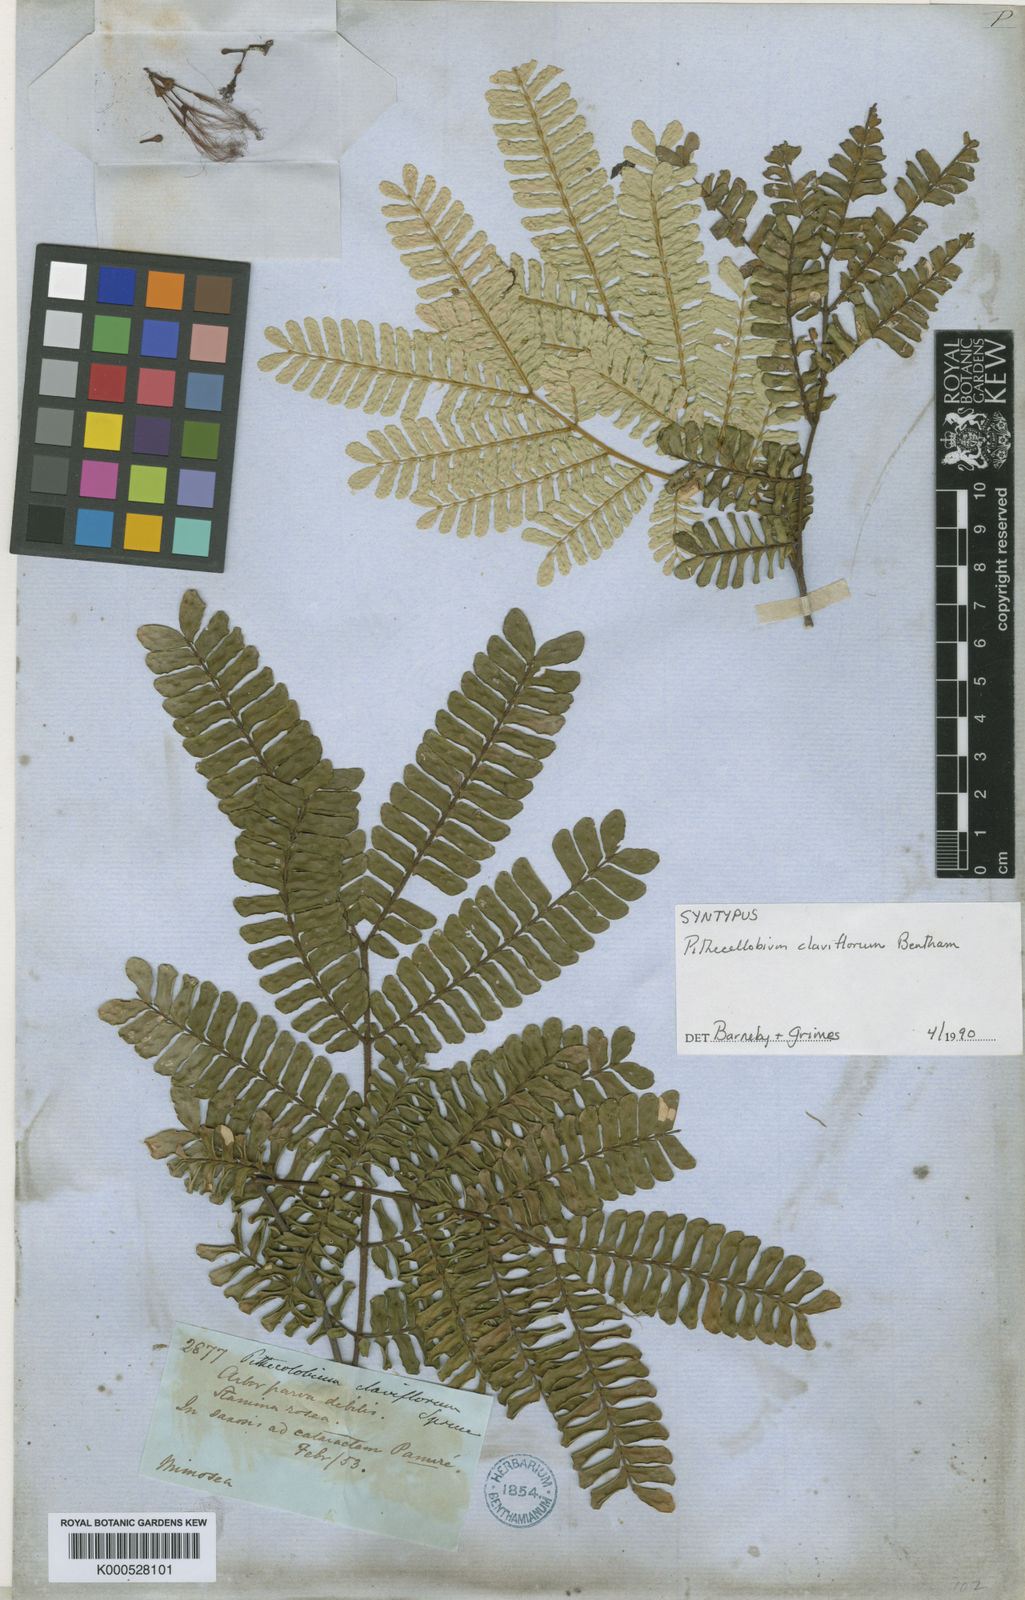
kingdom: Plantae
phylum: Tracheophyta
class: Magnoliopsida
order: Fabales
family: Fabaceae
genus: Zygia
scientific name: Zygia claviflora
